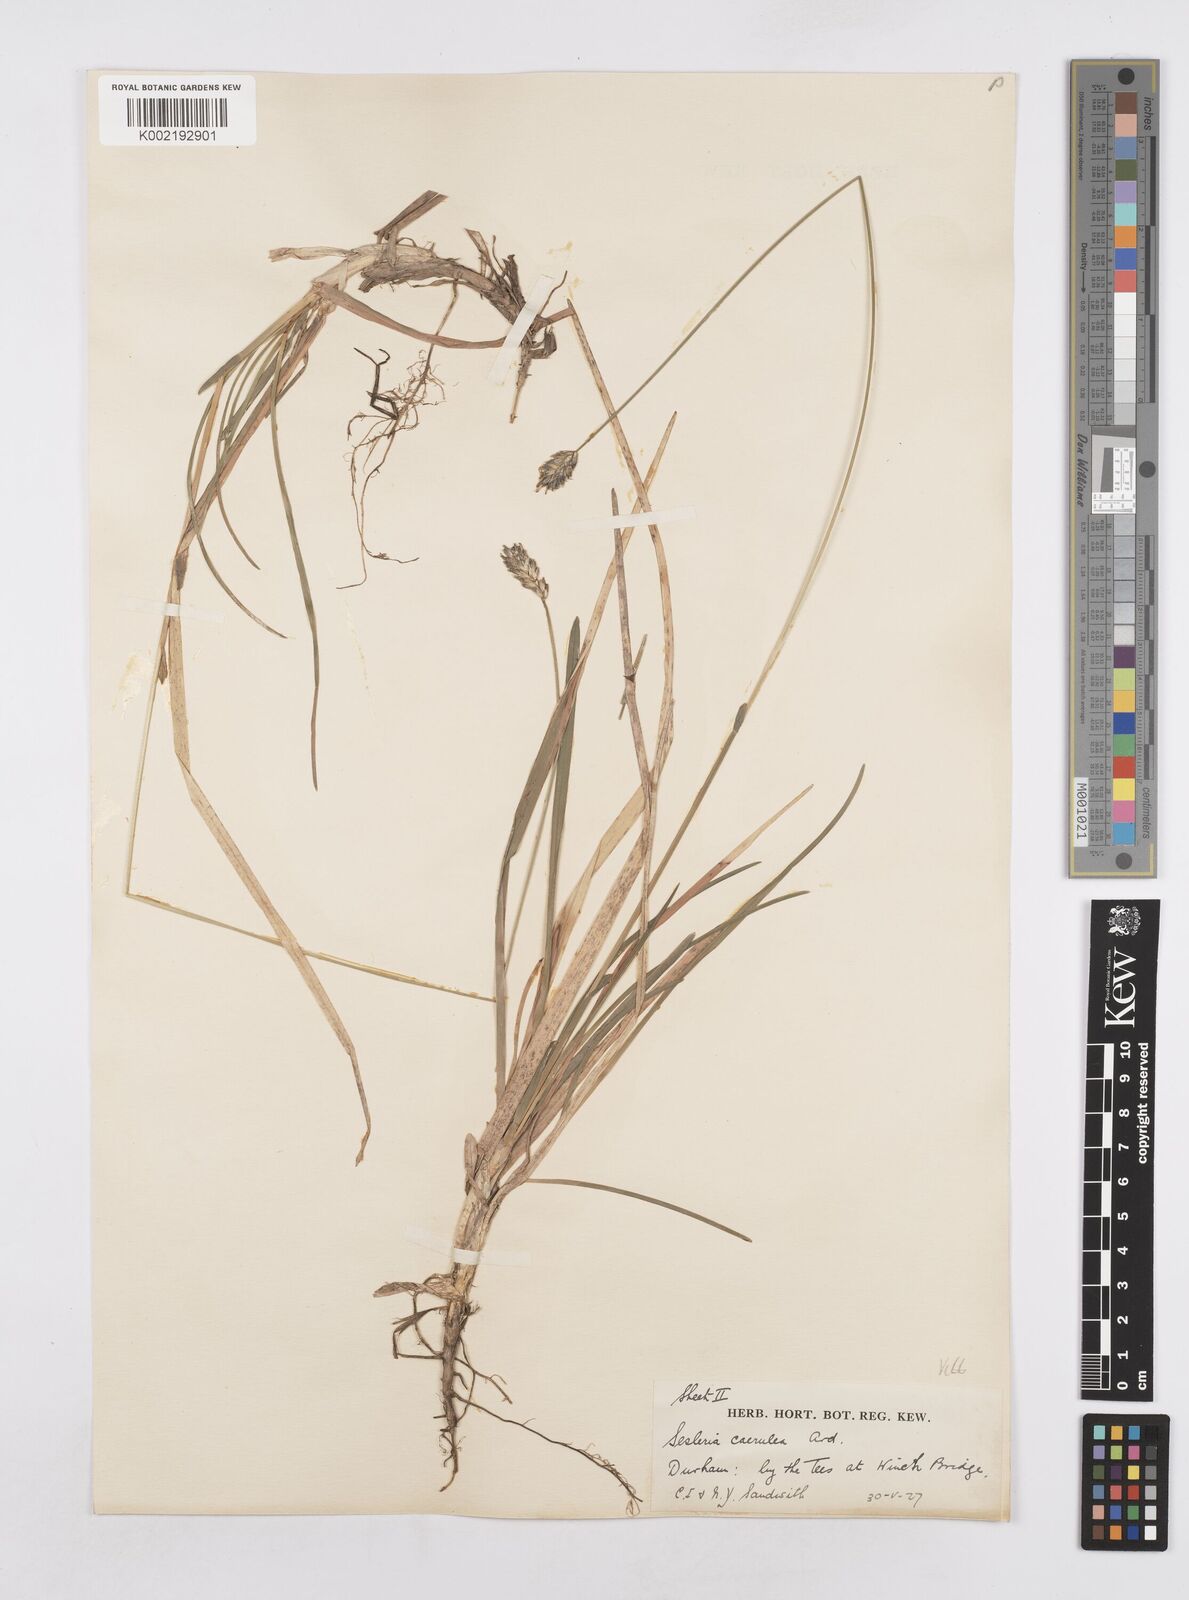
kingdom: Plantae
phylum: Tracheophyta
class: Liliopsida
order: Poales
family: Poaceae
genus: Sesleria
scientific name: Sesleria caerulea
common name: Blue moor-grass
